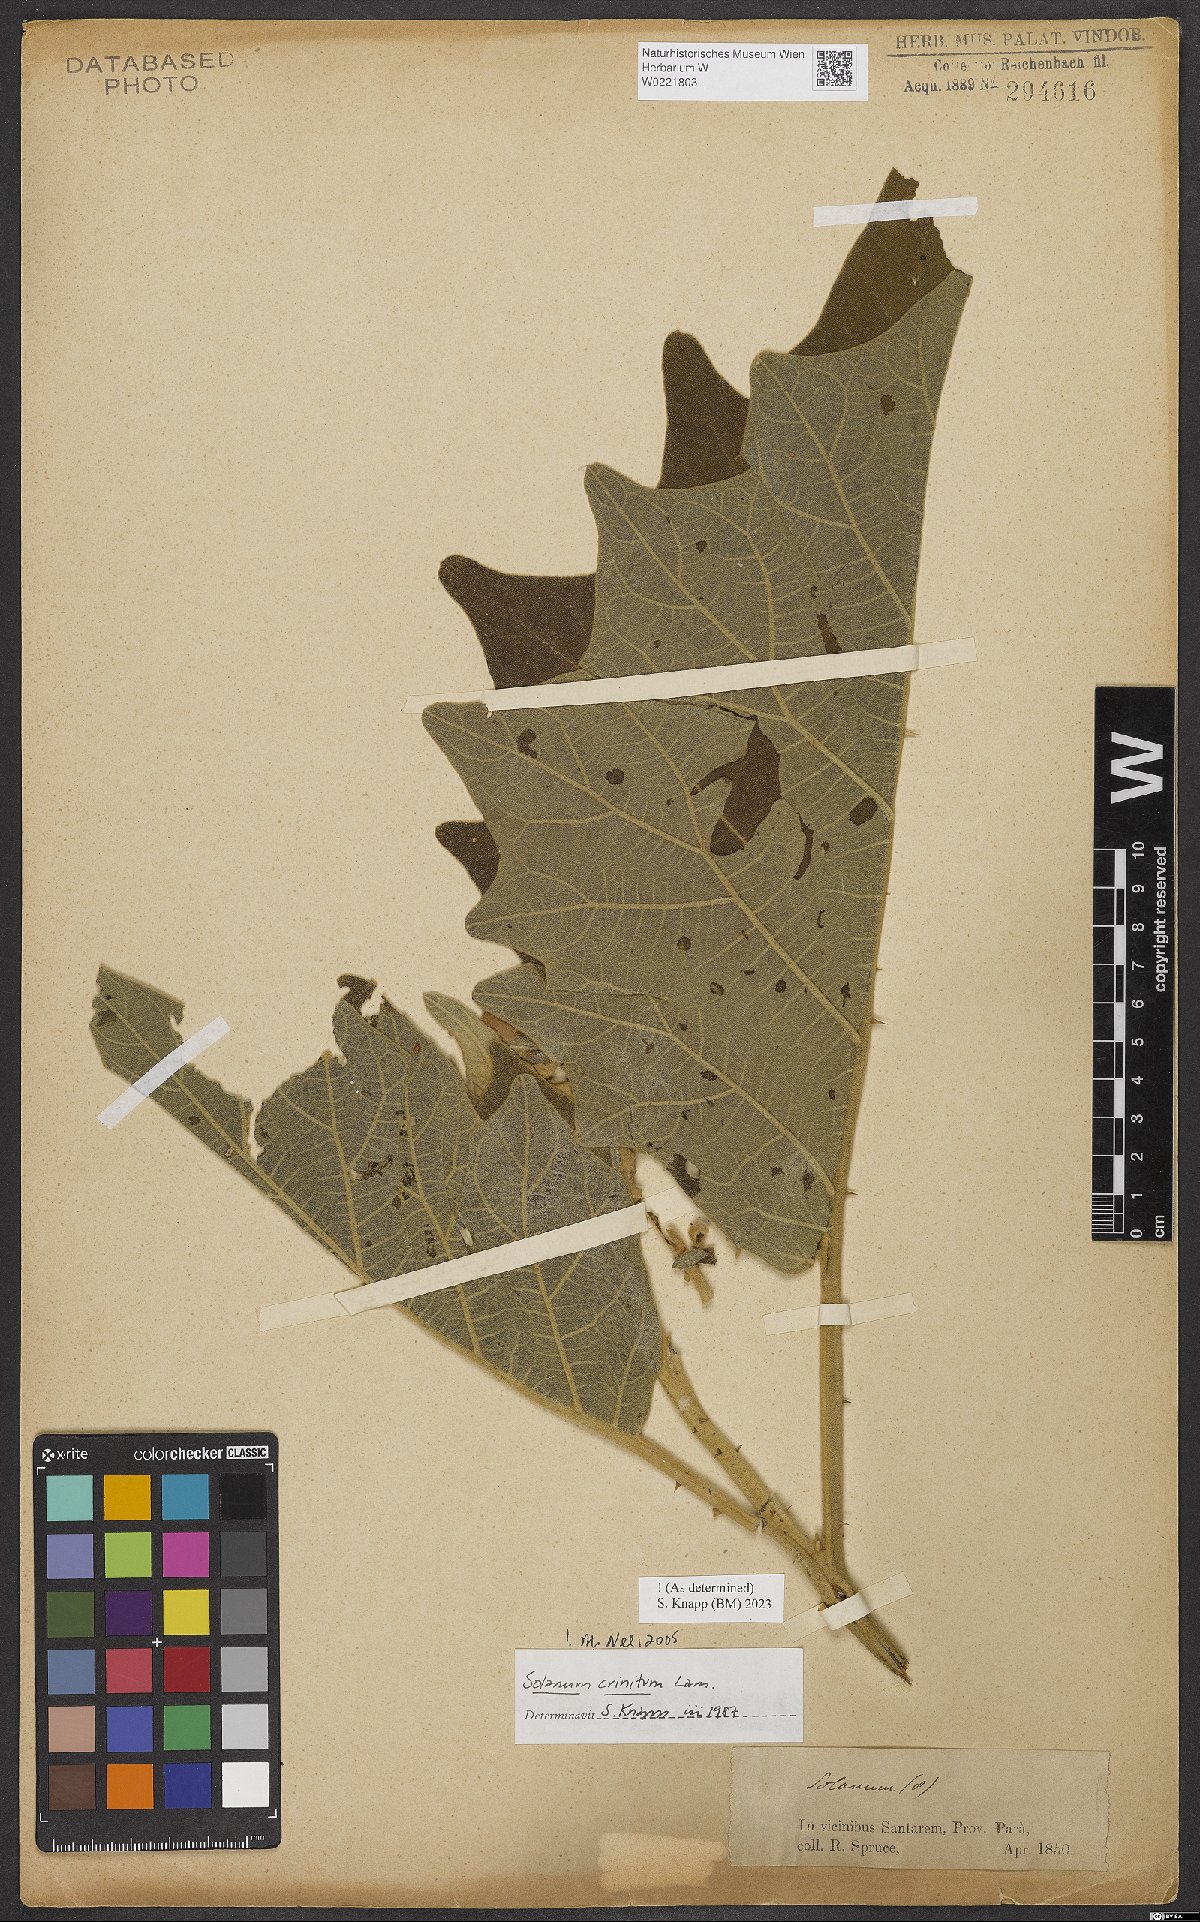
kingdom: Plantae
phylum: Tracheophyta
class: Magnoliopsida
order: Solanales
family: Solanaceae
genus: Solanum
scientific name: Solanum crinitum
